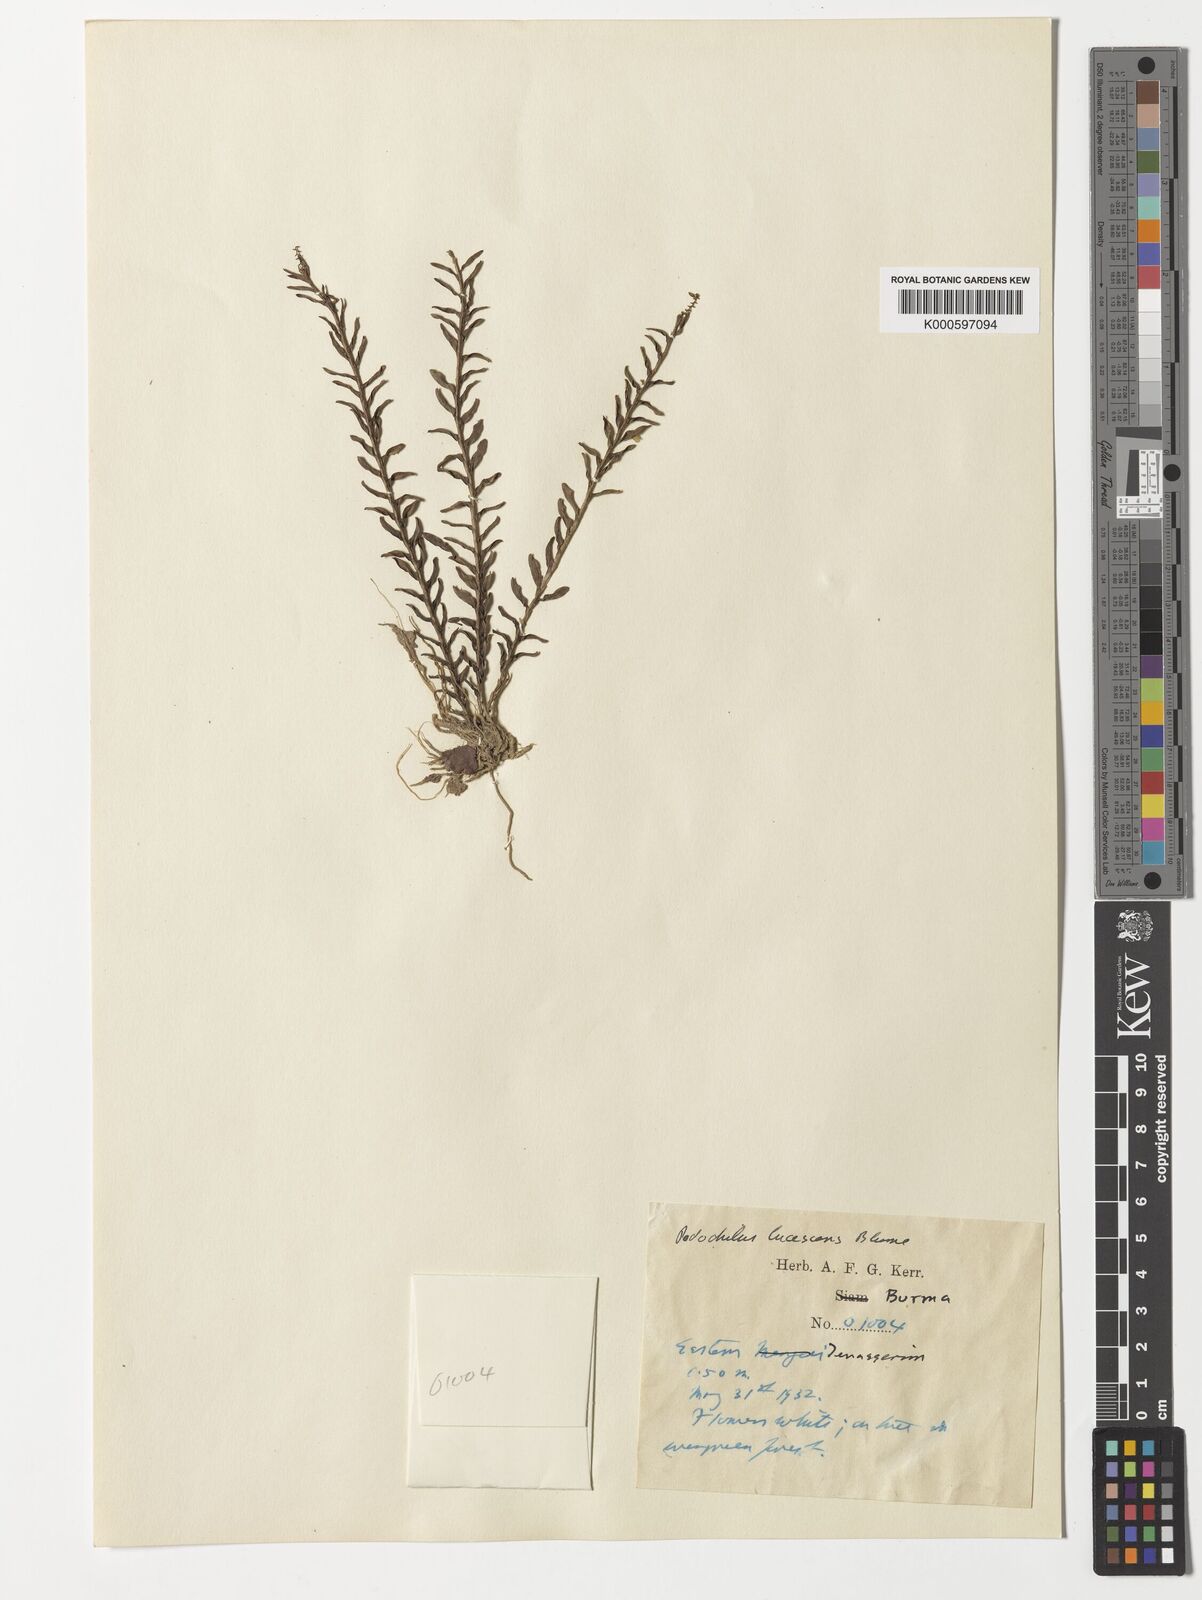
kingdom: Plantae
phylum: Tracheophyta
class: Liliopsida
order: Asparagales
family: Orchidaceae
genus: Podochilus
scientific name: Podochilus lucescens
